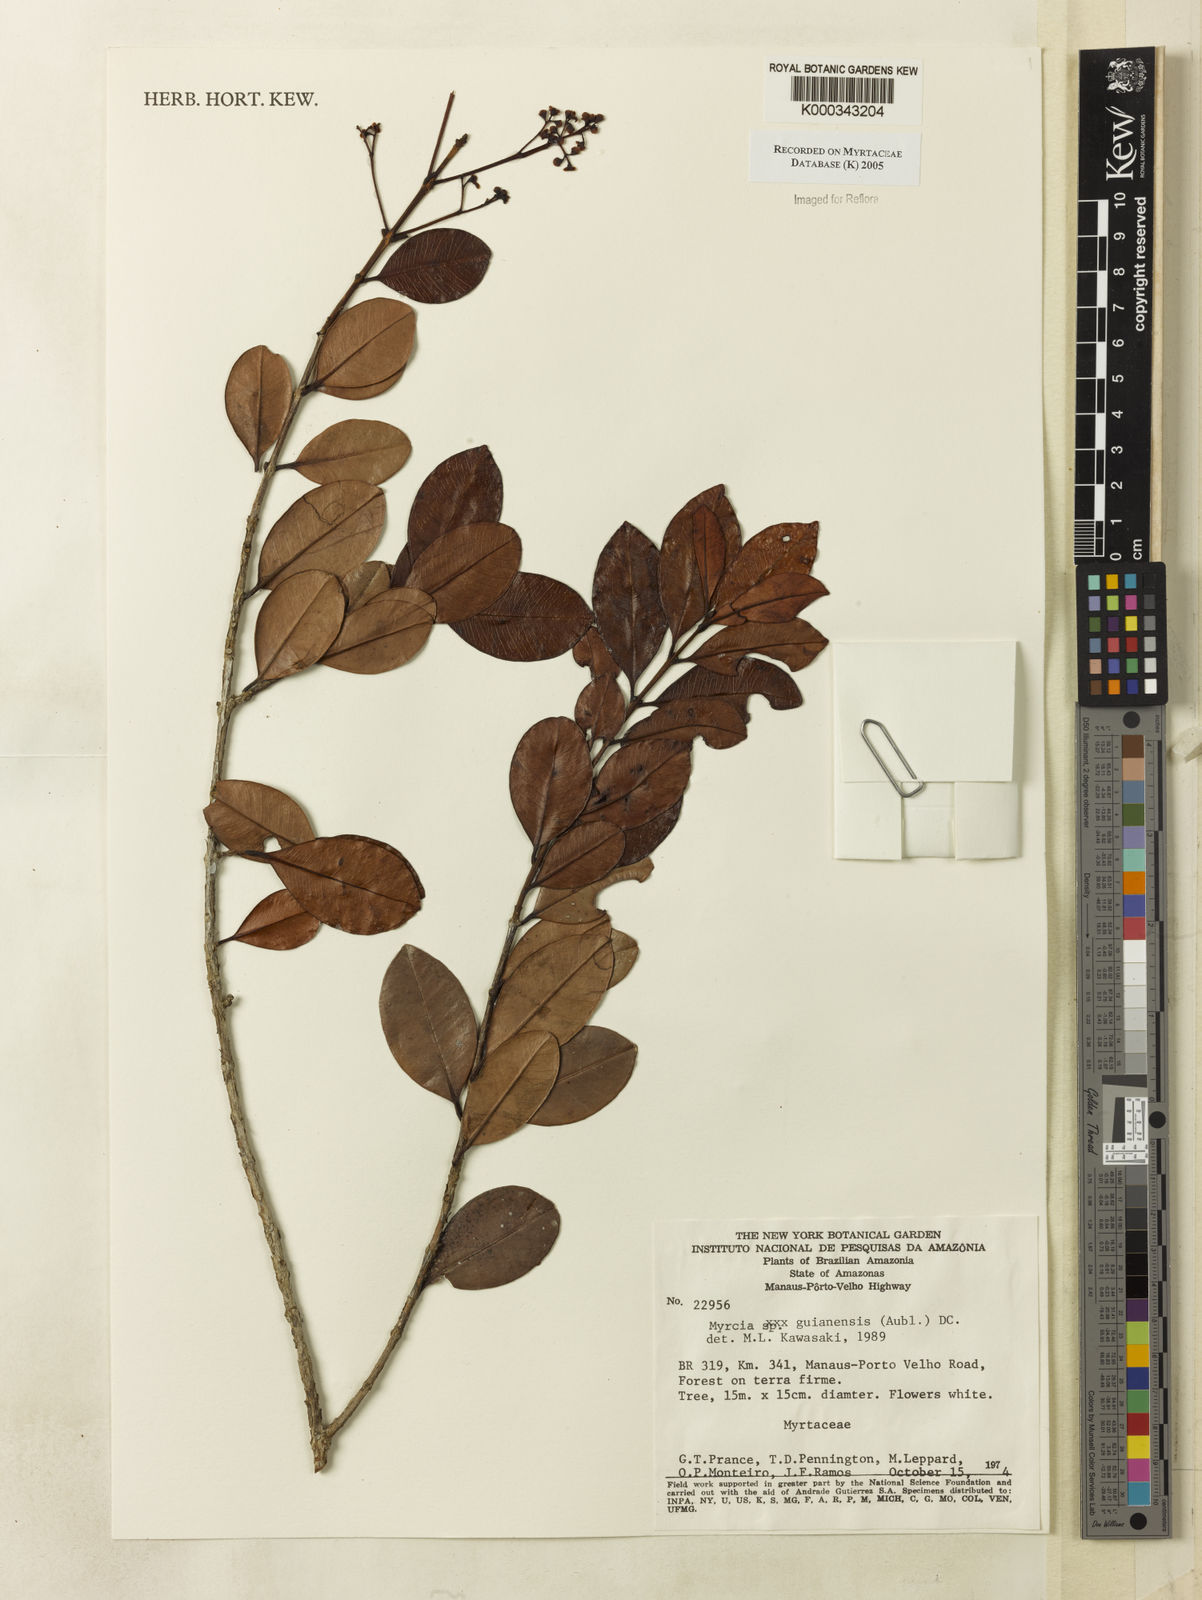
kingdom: Plantae
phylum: Tracheophyta
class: Magnoliopsida
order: Myrtales
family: Myrtaceae
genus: Myrcia
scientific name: Myrcia guianensis
